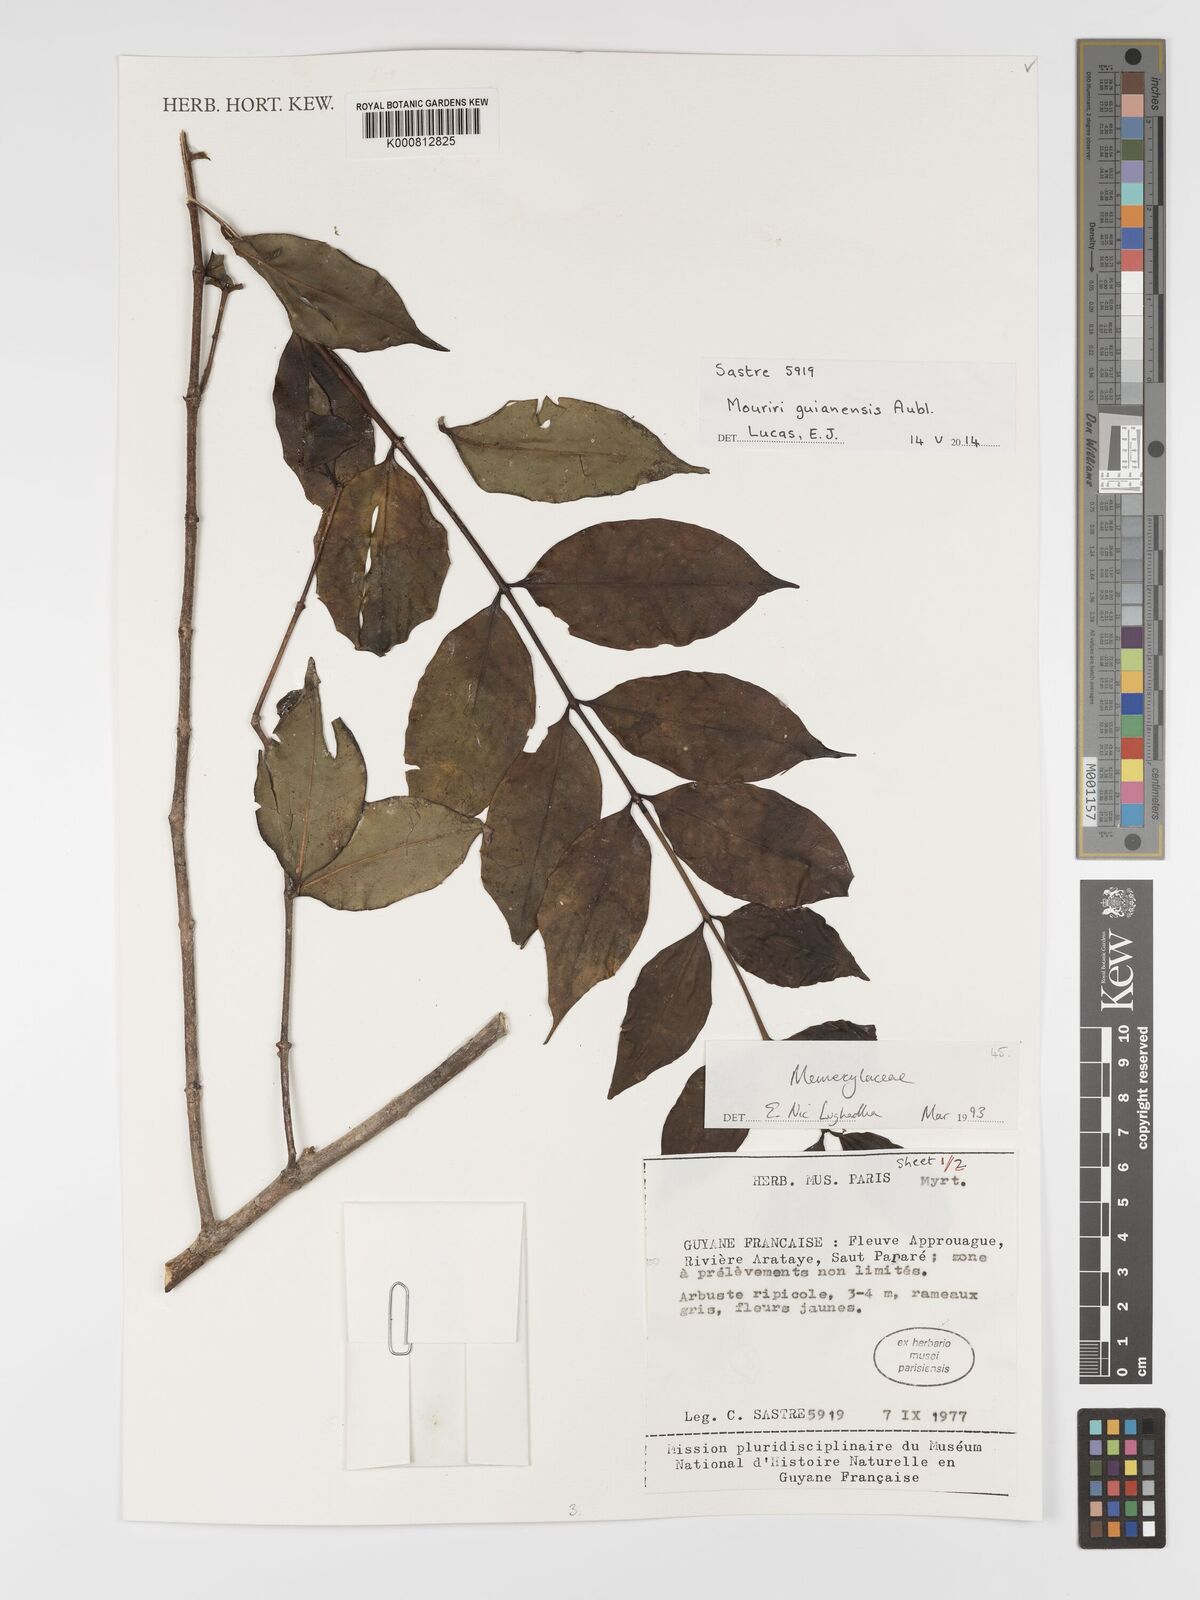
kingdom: Plantae
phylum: Tracheophyta
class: Magnoliopsida
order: Myrtales
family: Melastomataceae
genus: Mouriri
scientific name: Mouriri guianensis
